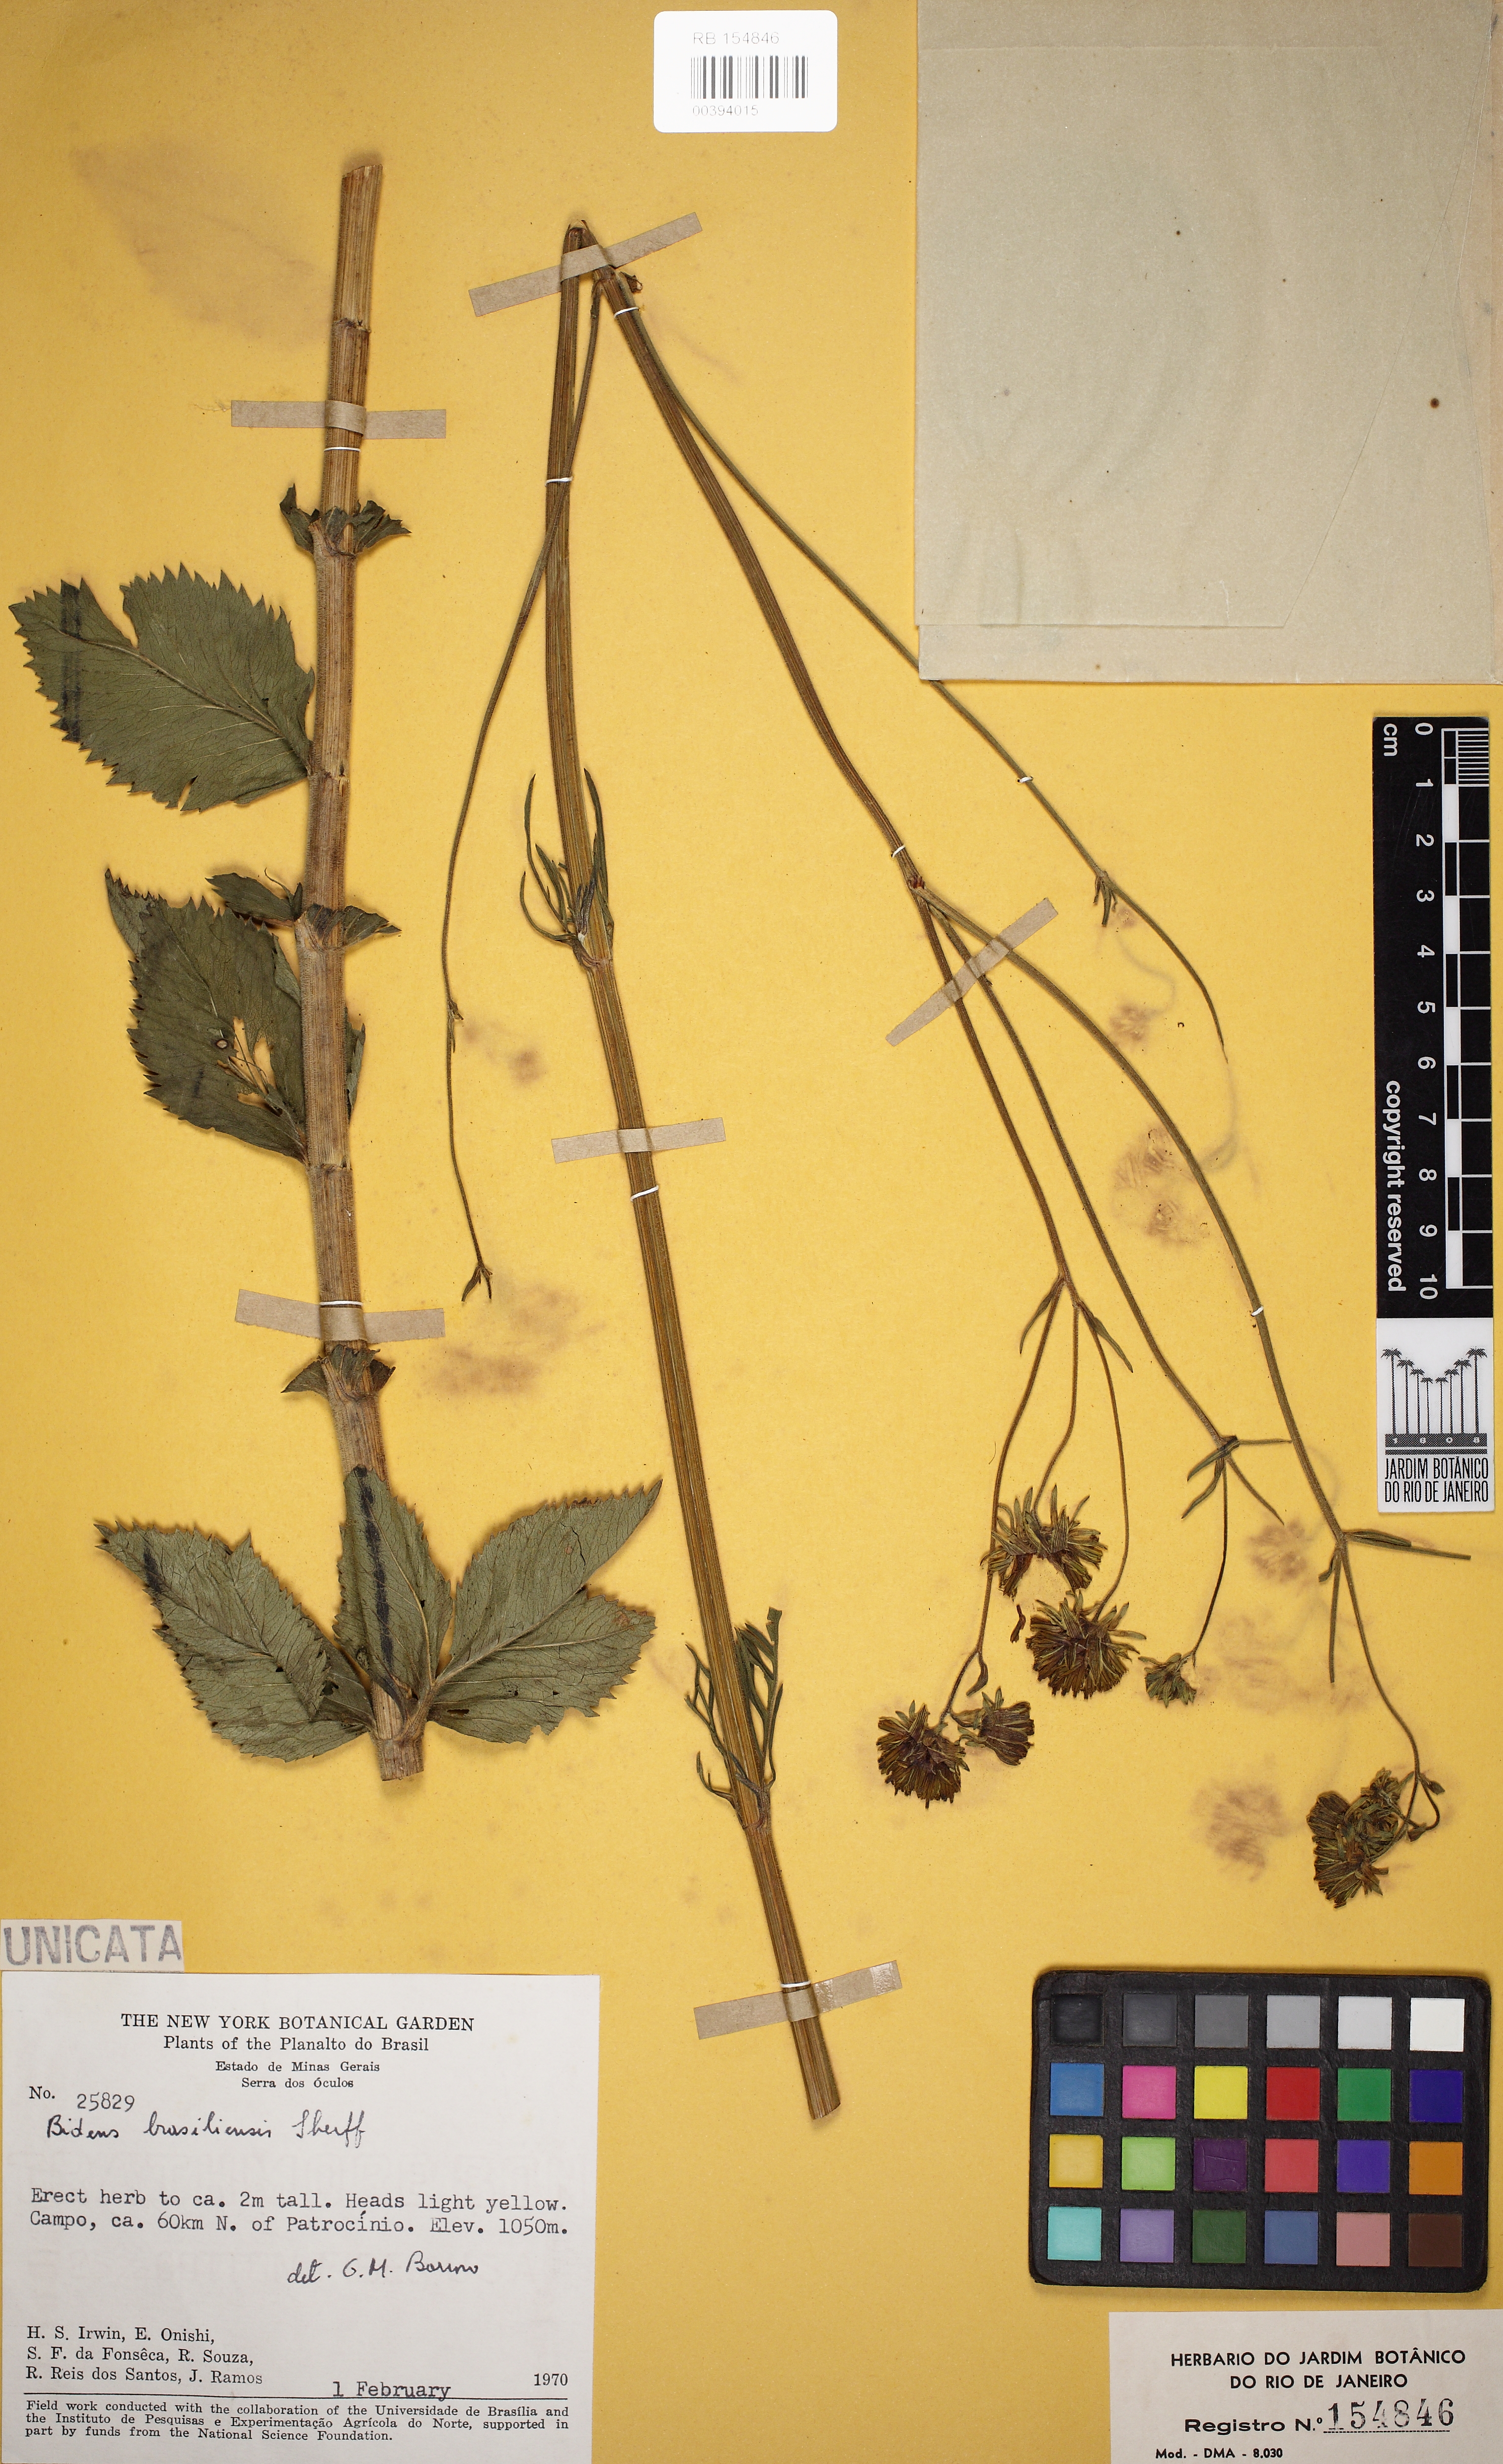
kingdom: Plantae
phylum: Tracheophyta
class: Magnoliopsida
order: Asterales
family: Asteraceae
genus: Bidens
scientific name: Bidens brasiliensis
